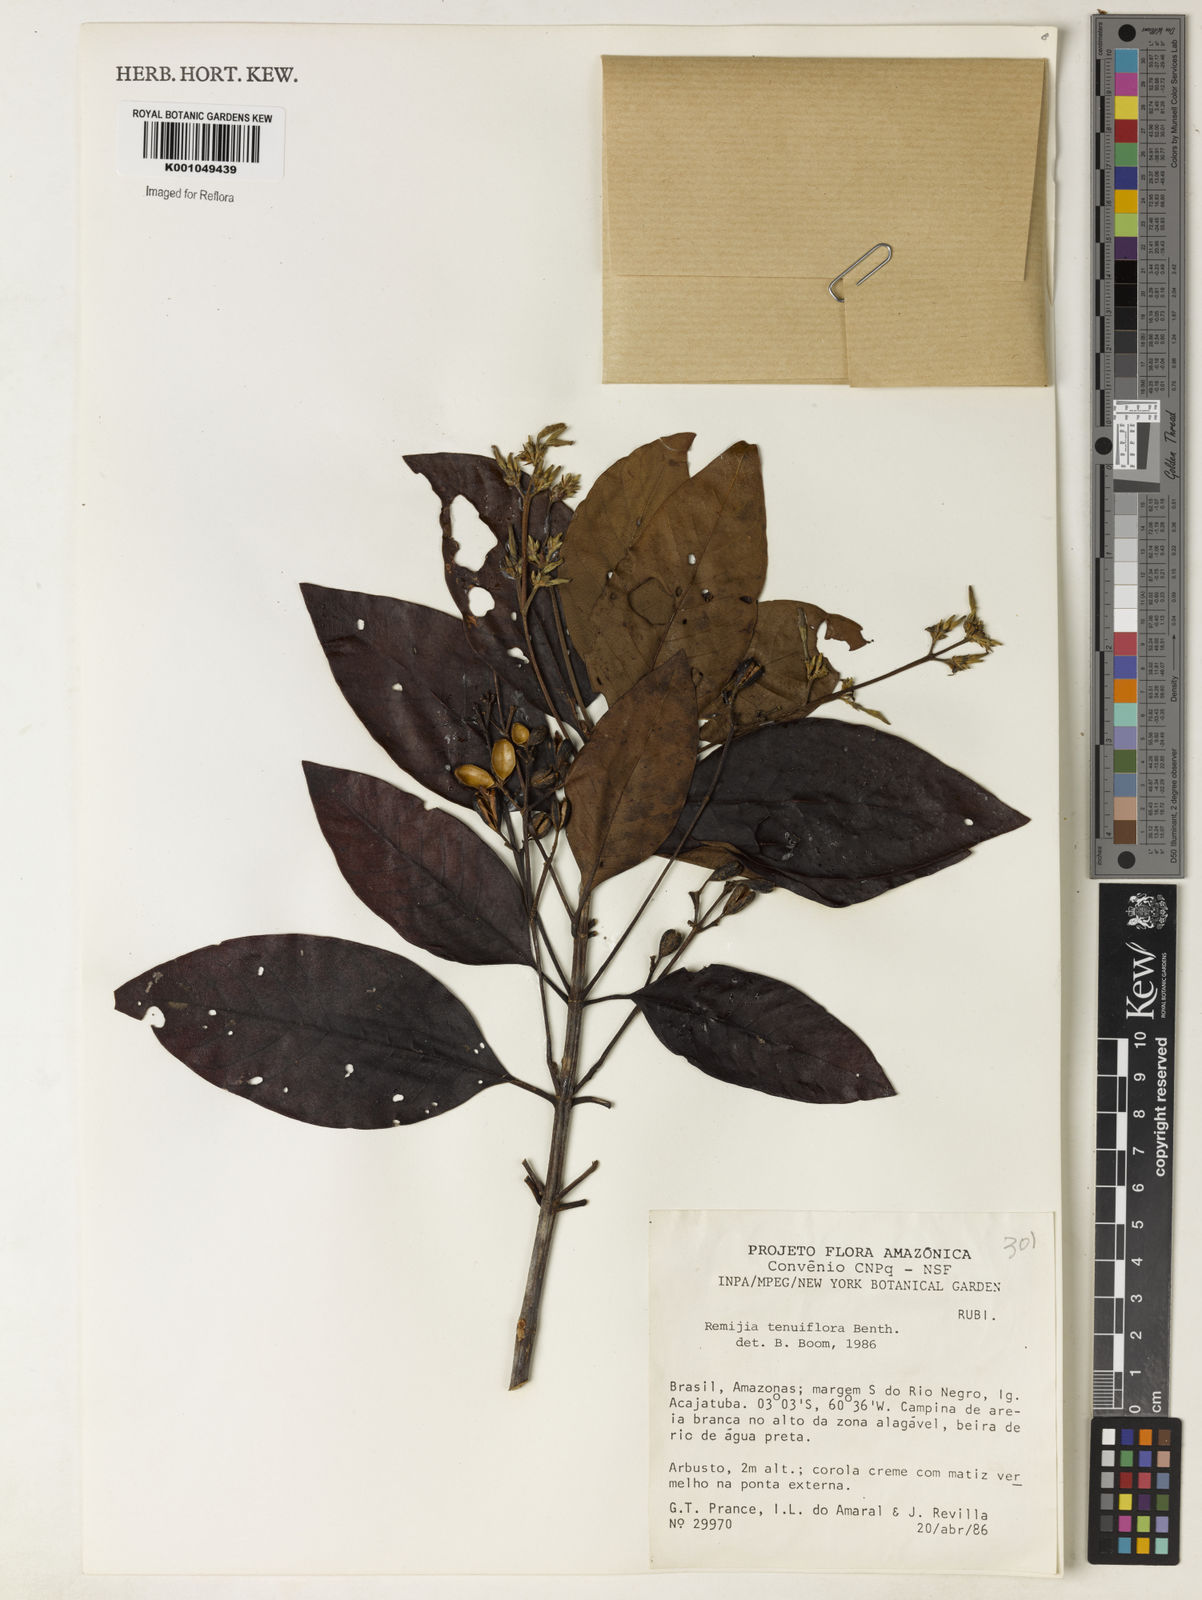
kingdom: Plantae
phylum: Tracheophyta
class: Magnoliopsida
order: Gentianales
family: Rubiaceae
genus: Remijia
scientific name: Remijia tenuiflora
